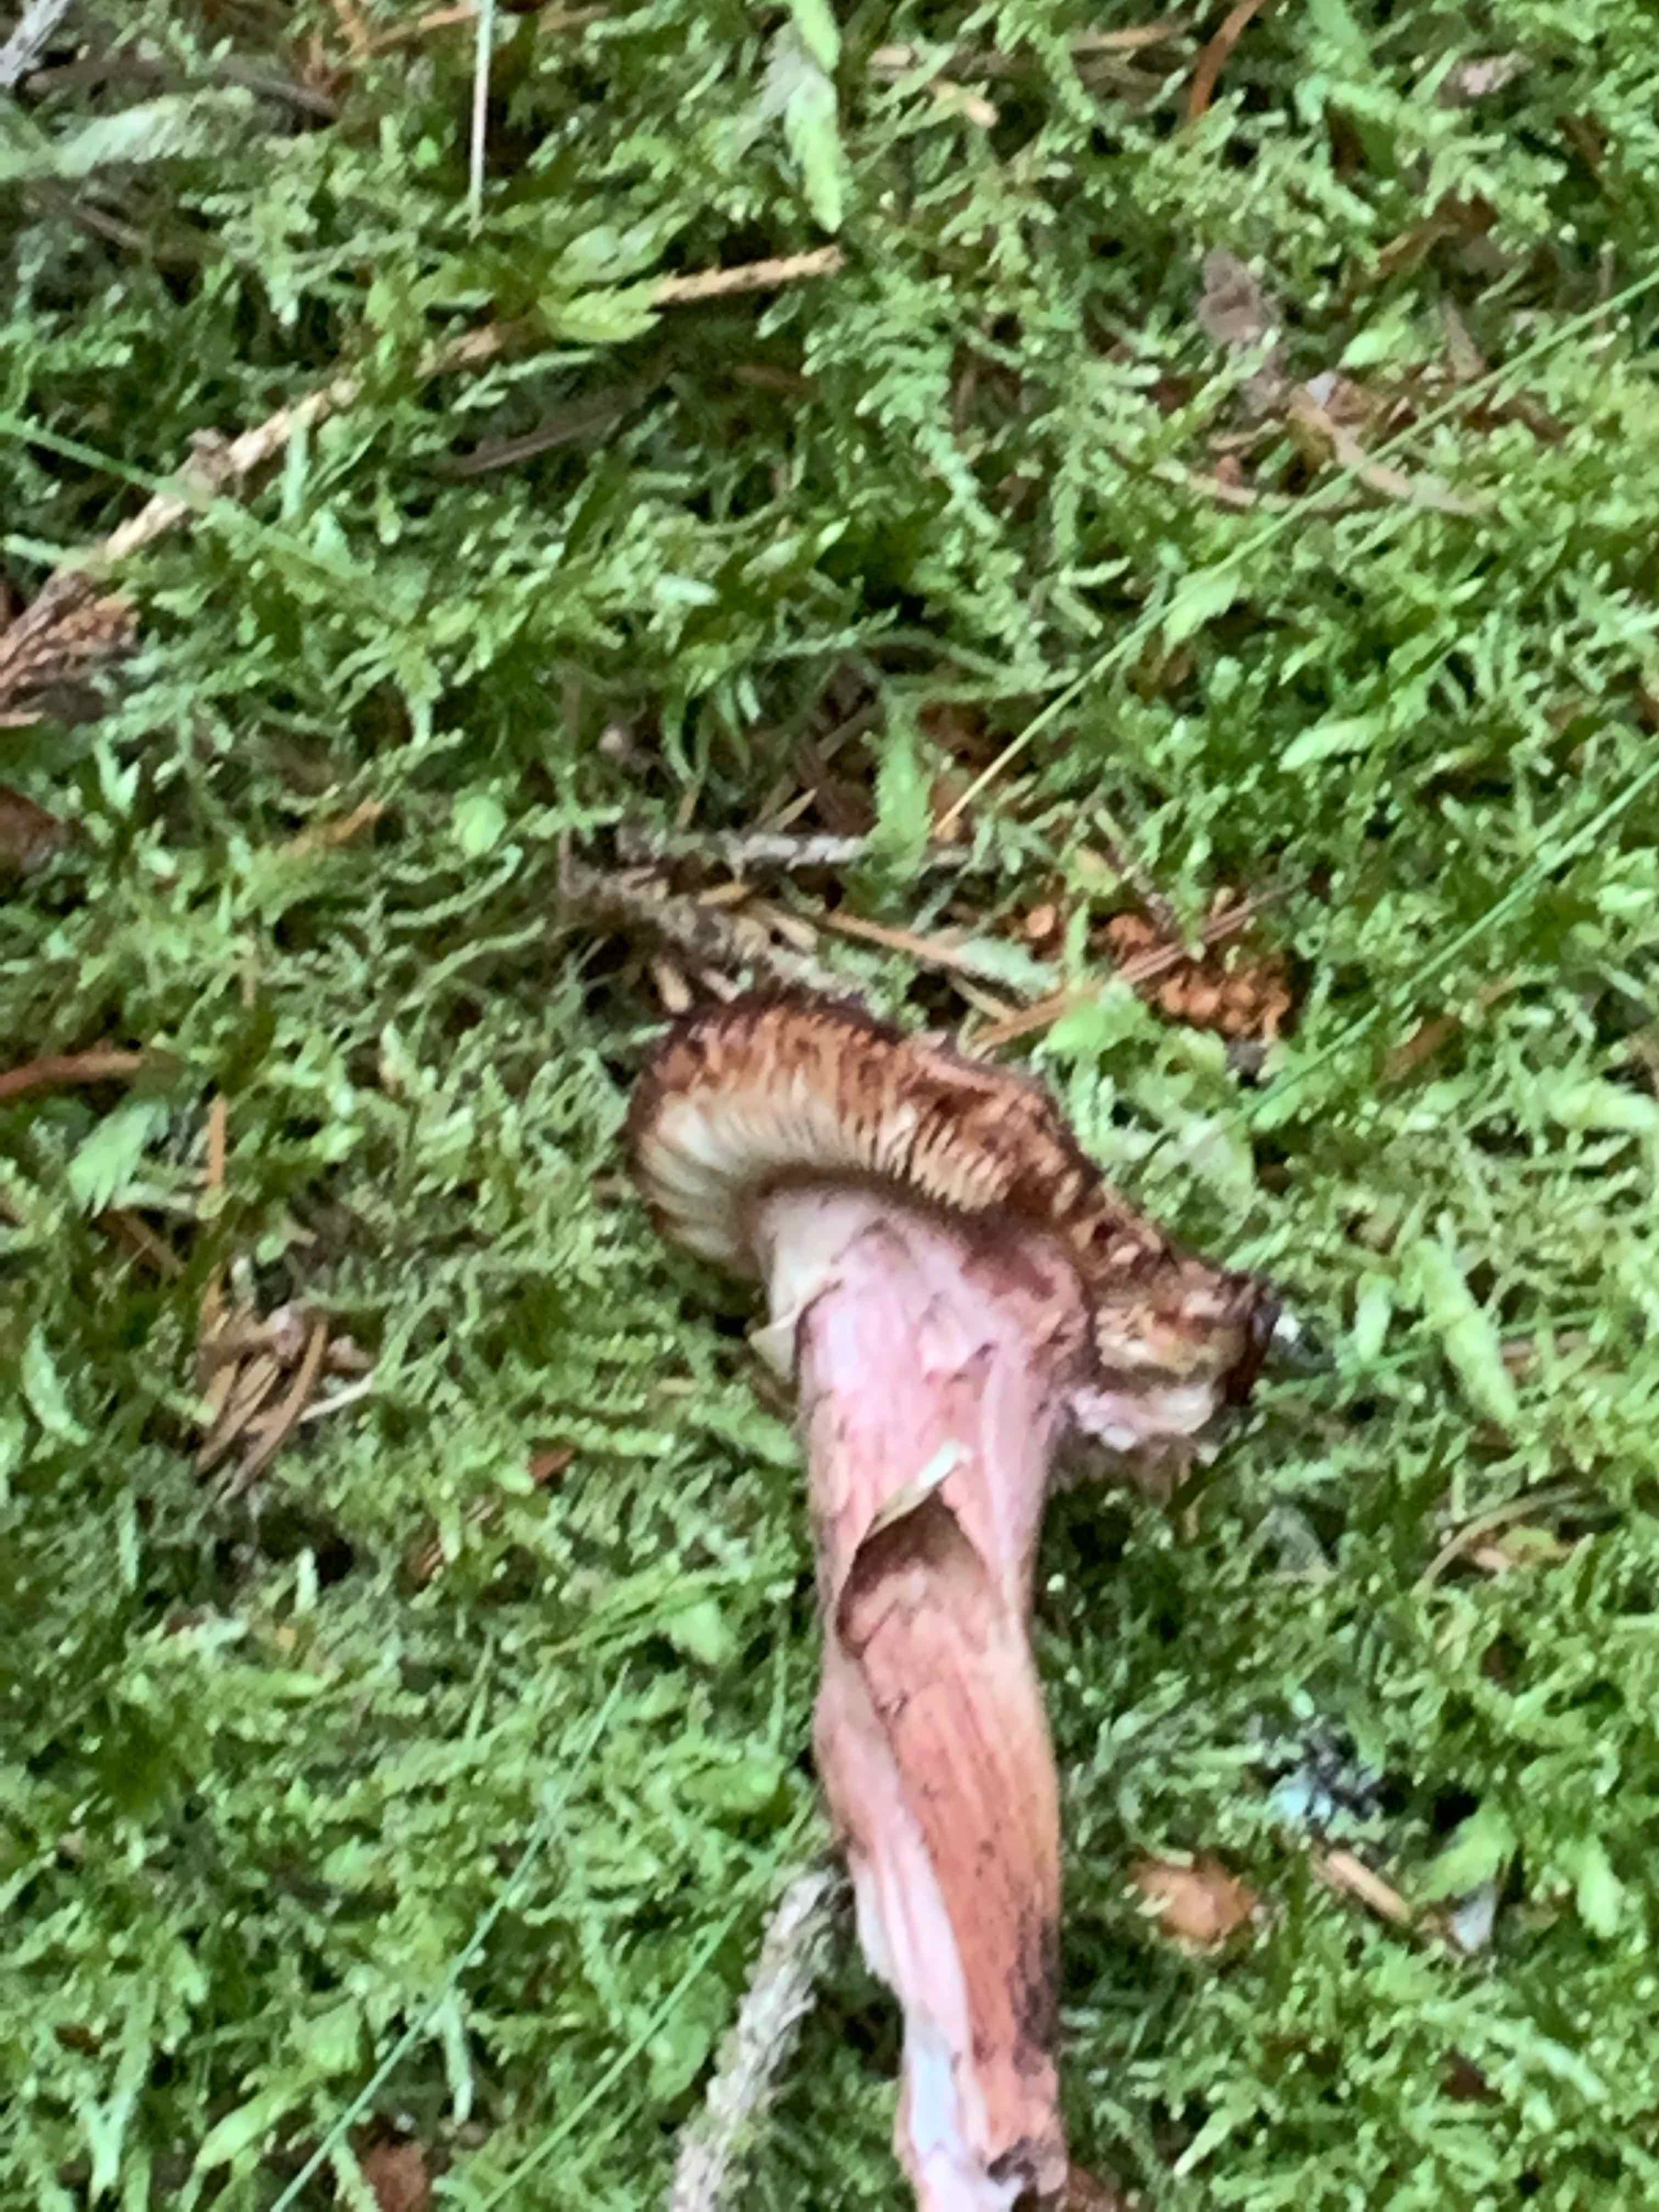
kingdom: Fungi
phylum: Basidiomycota
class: Agaricomycetes
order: Agaricales
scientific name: Agaricales
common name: champignonordenen
